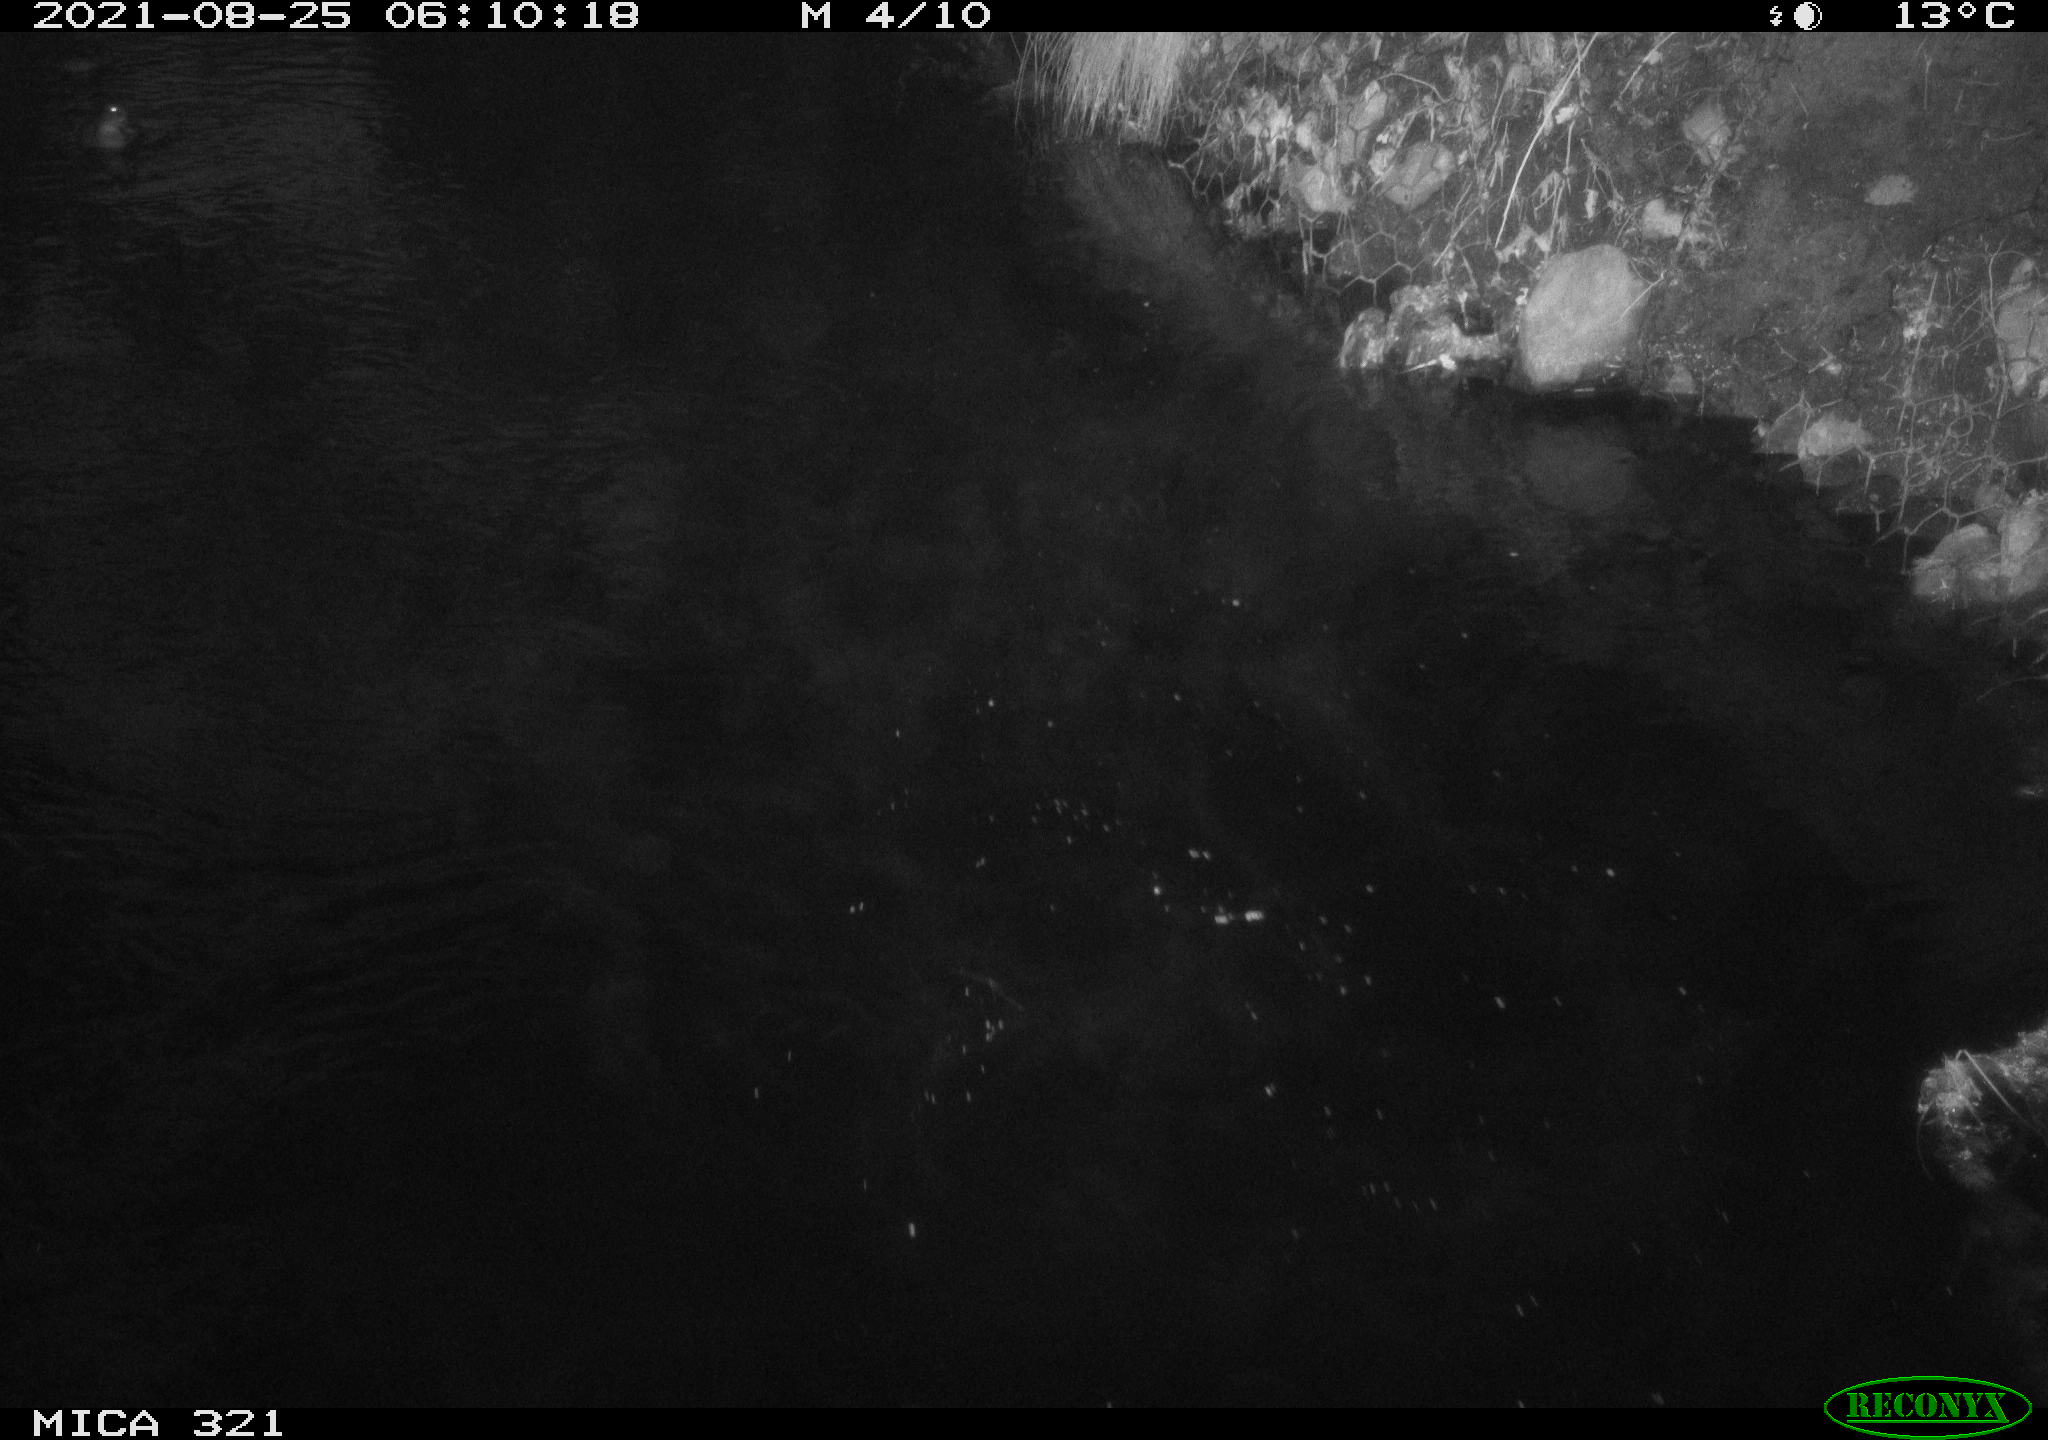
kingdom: Animalia
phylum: Chordata
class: Aves
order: Anseriformes
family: Anatidae
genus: Anas
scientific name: Anas platyrhynchos
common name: Mallard
